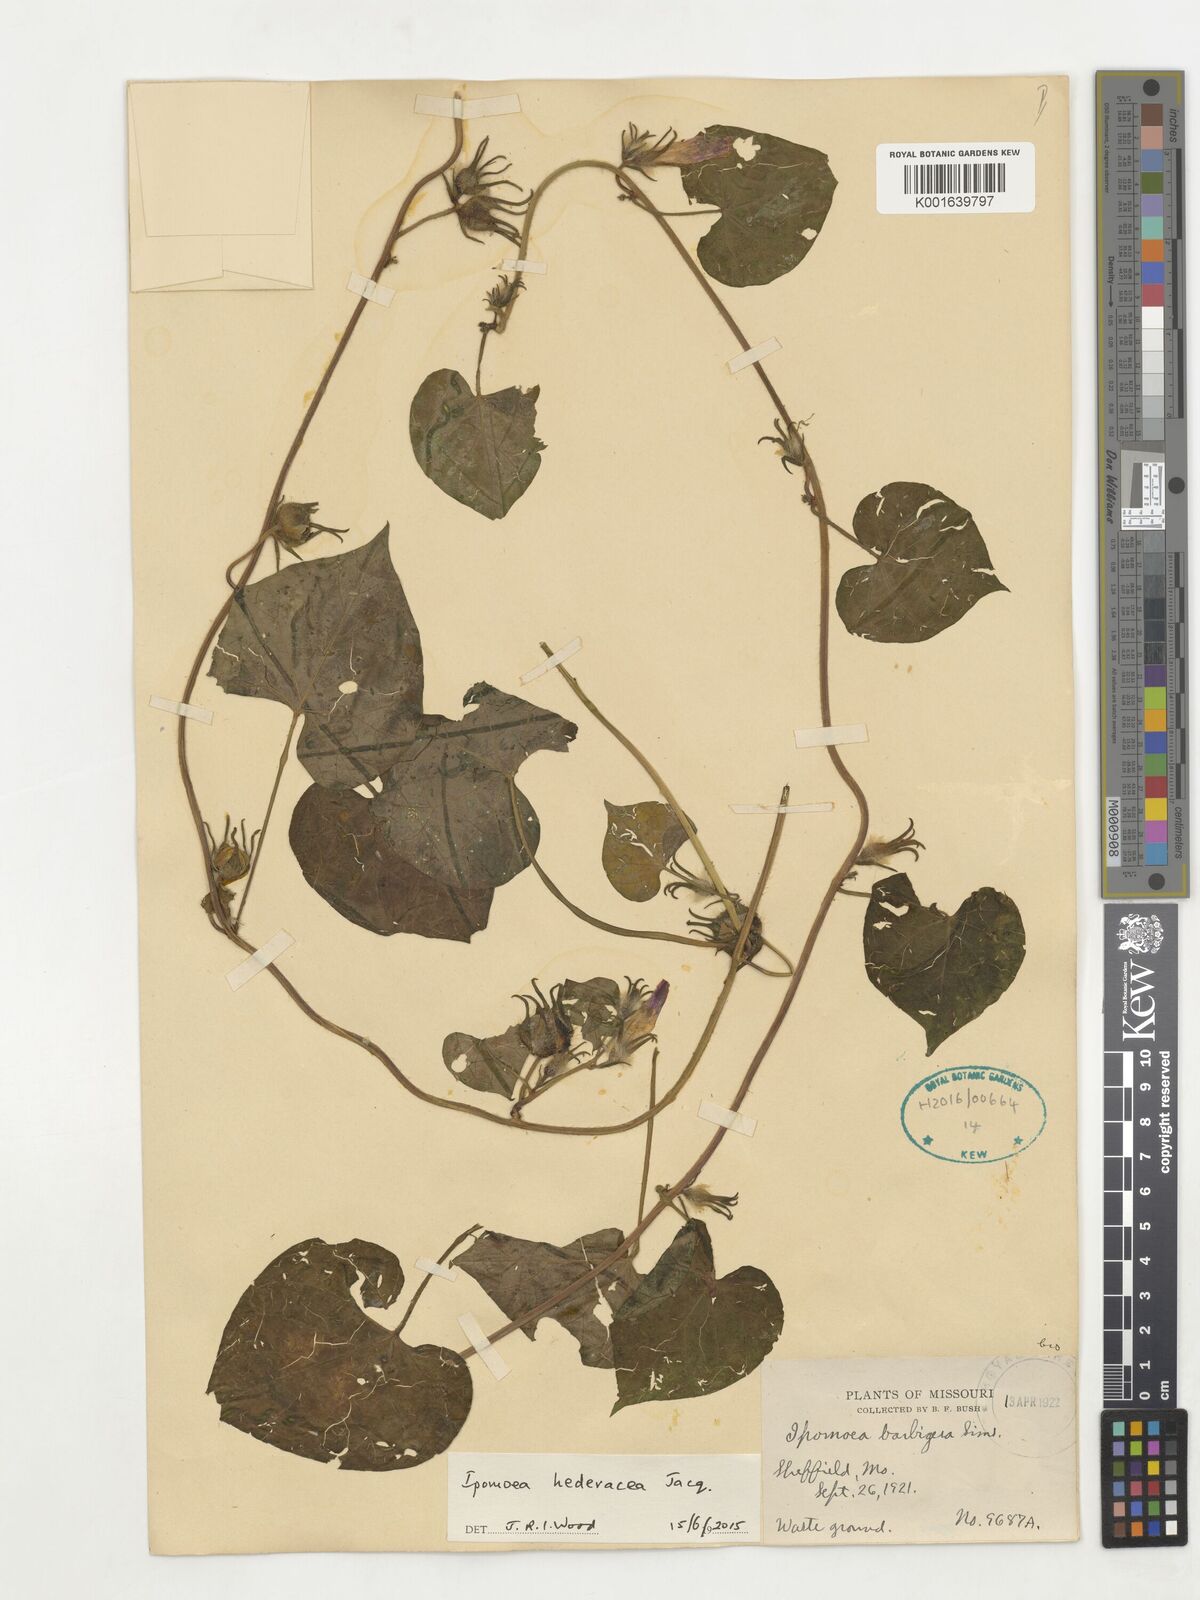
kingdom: Plantae
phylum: Tracheophyta
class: Magnoliopsida
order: Solanales
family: Convolvulaceae
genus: Ipomoea
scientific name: Ipomoea hederacea
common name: Ivy-leaved morning-glory
